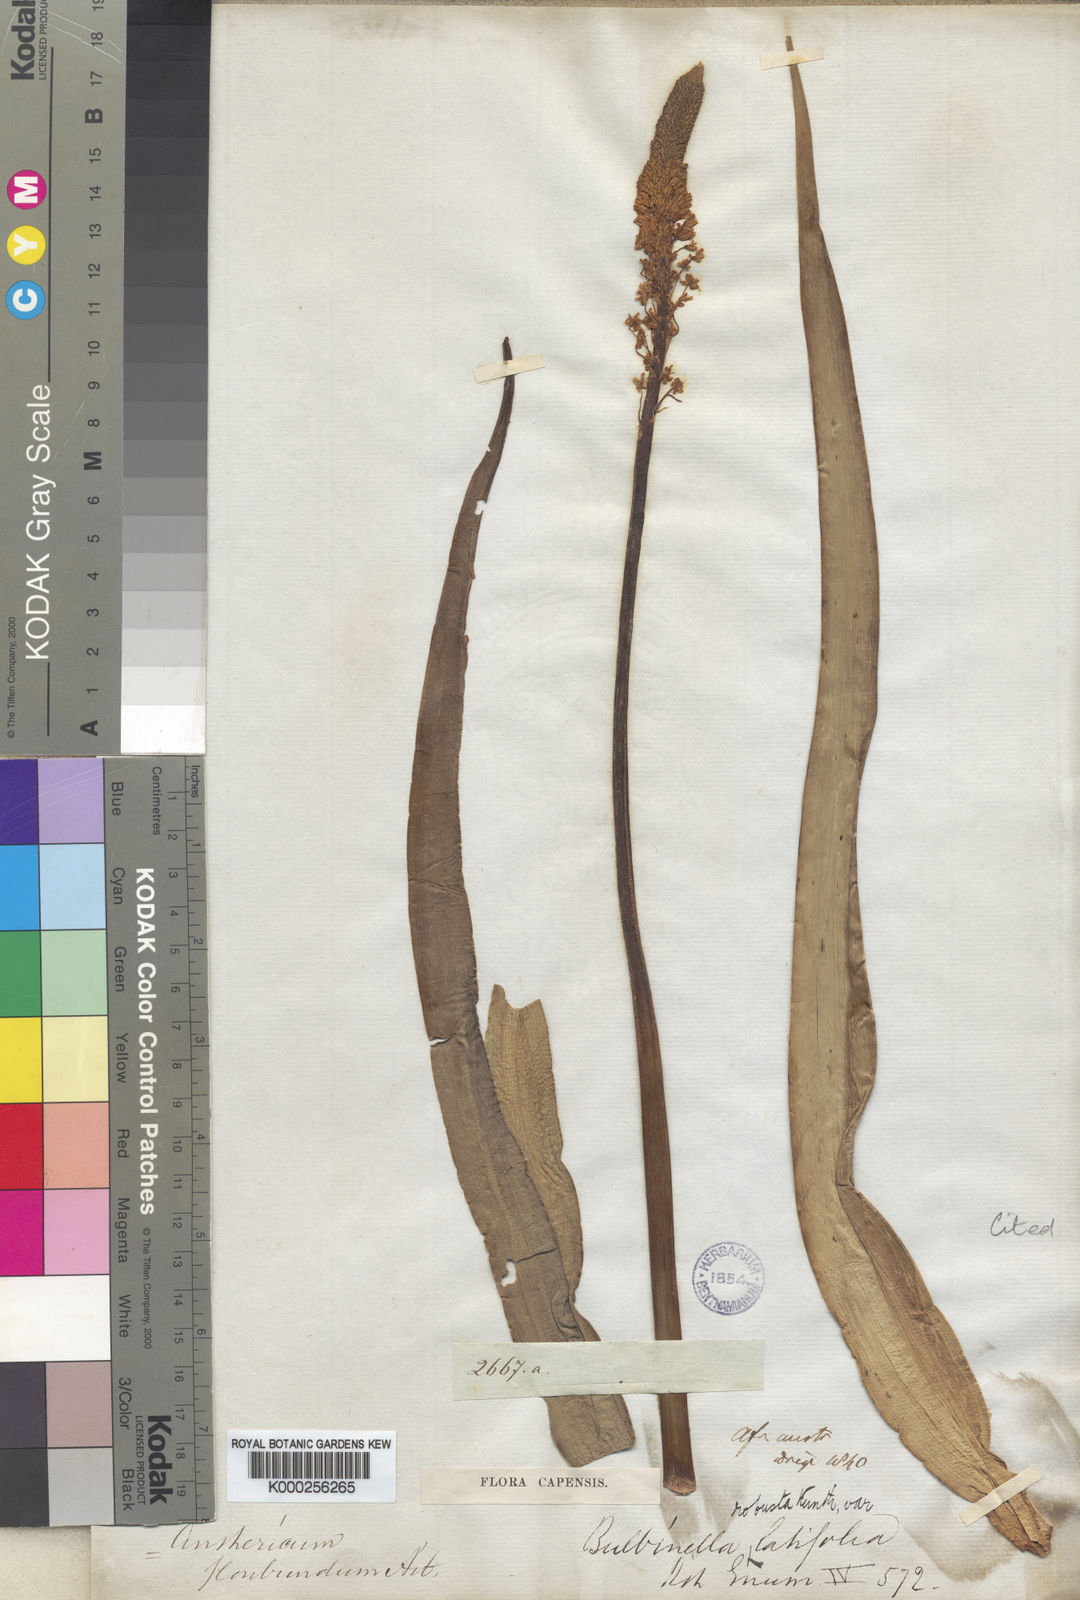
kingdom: Plantae
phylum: Tracheophyta
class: Liliopsida
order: Asparagales
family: Asphodelaceae
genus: Bulbinella
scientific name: Bulbinella latifolia
